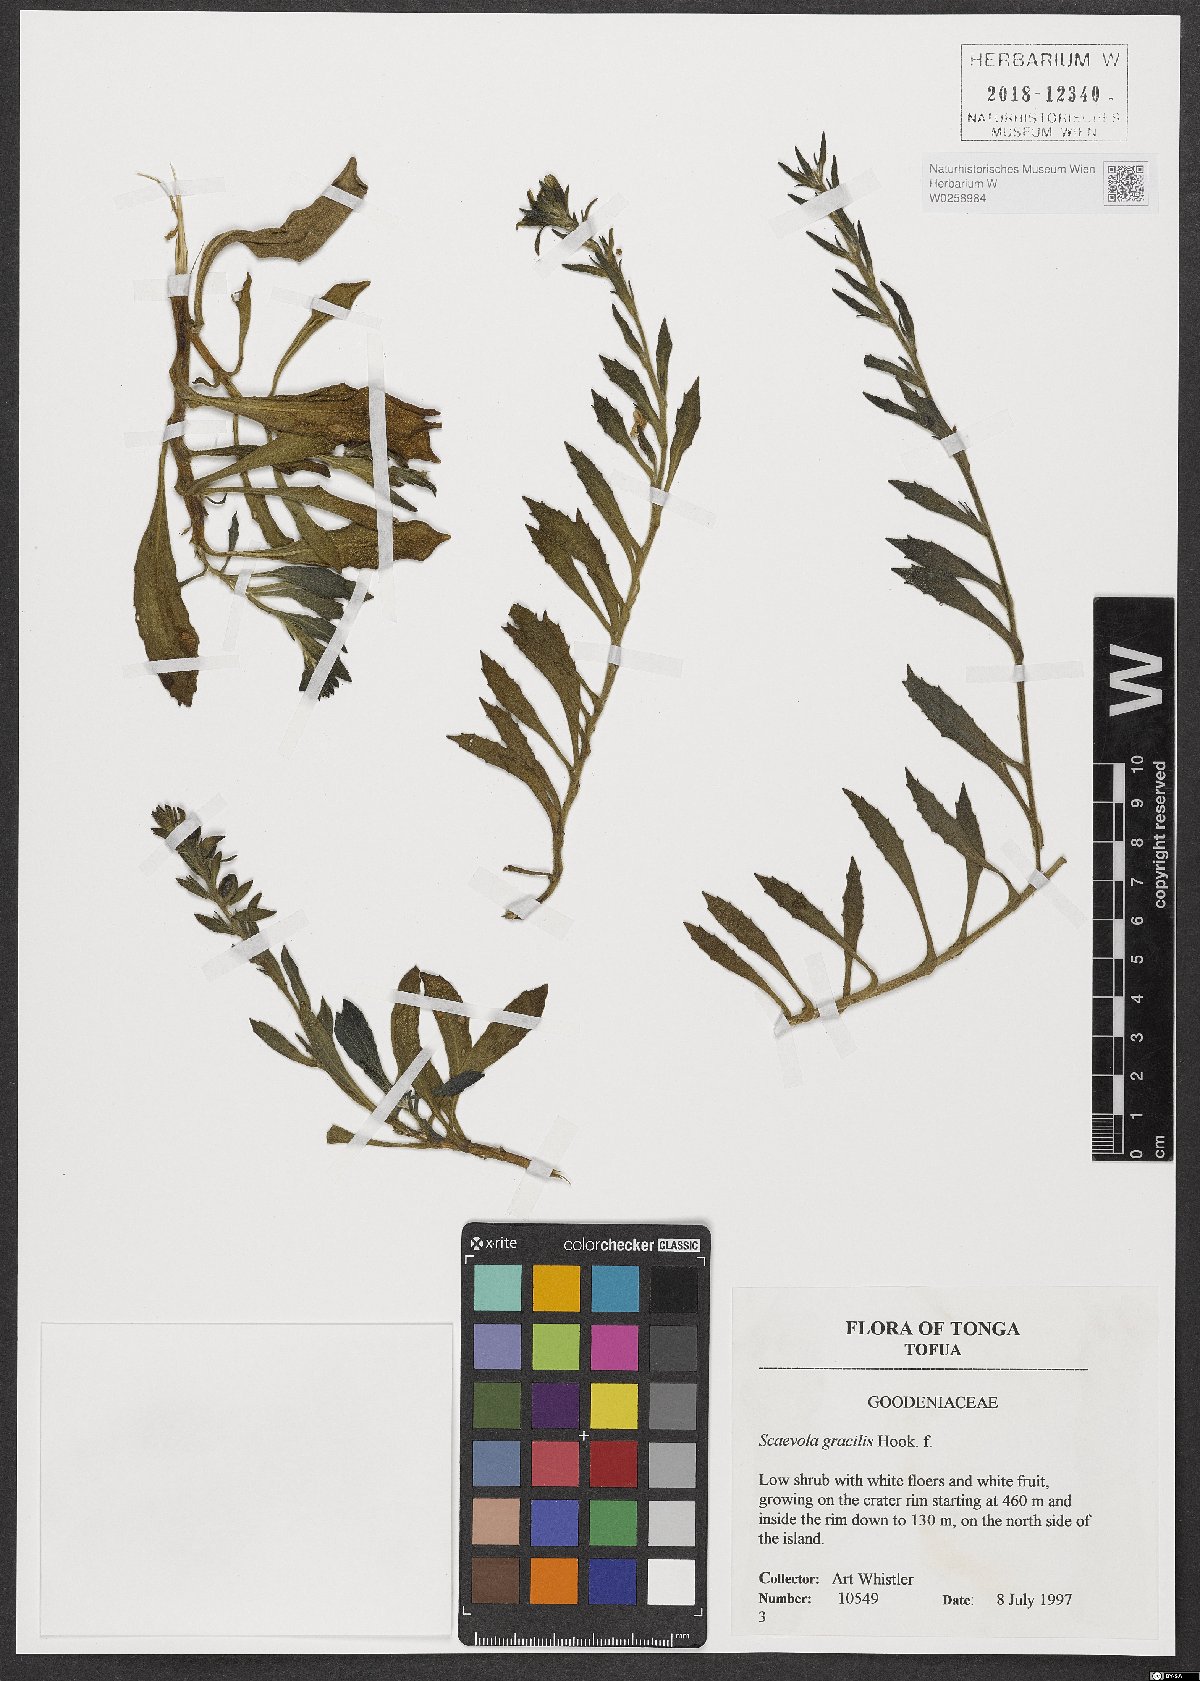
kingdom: Plantae
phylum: Tracheophyta
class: Magnoliopsida
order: Asterales
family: Goodeniaceae
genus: Scaevola
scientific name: Scaevola gracilis
